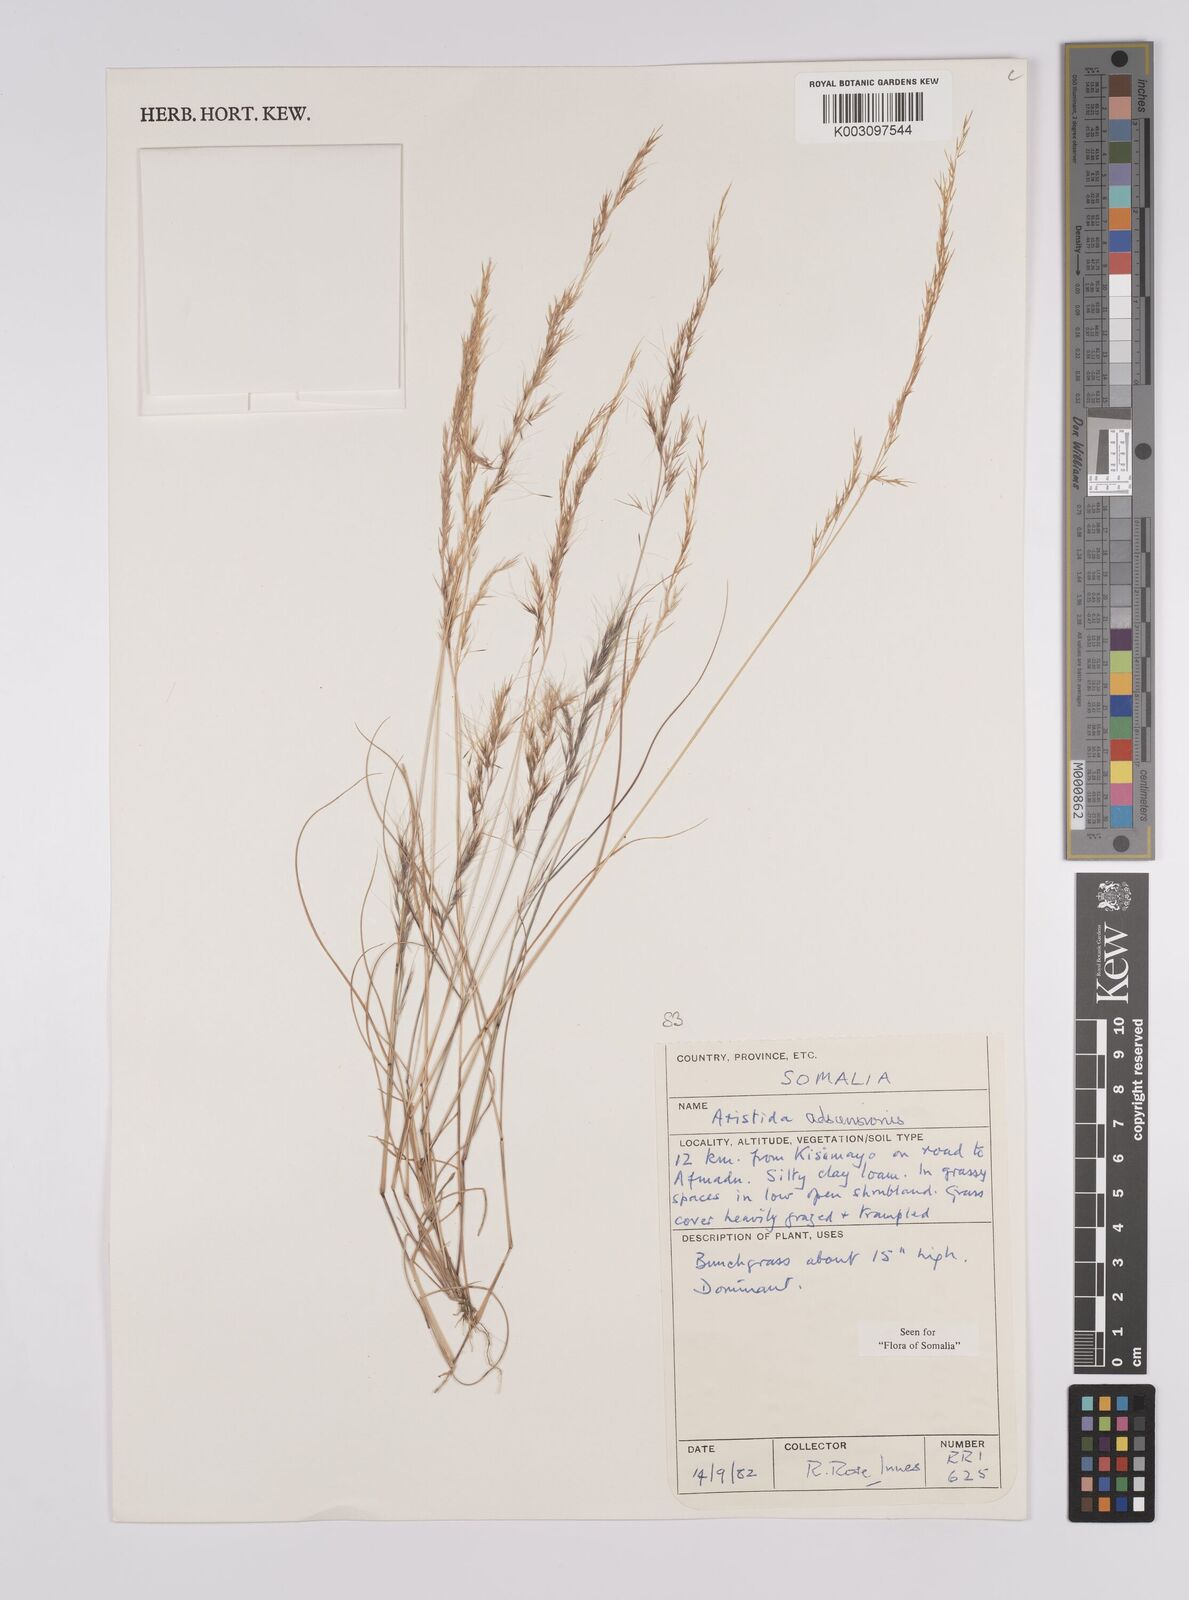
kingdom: Plantae
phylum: Tracheophyta
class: Liliopsida
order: Poales
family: Poaceae
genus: Aristida
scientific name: Aristida laevis
